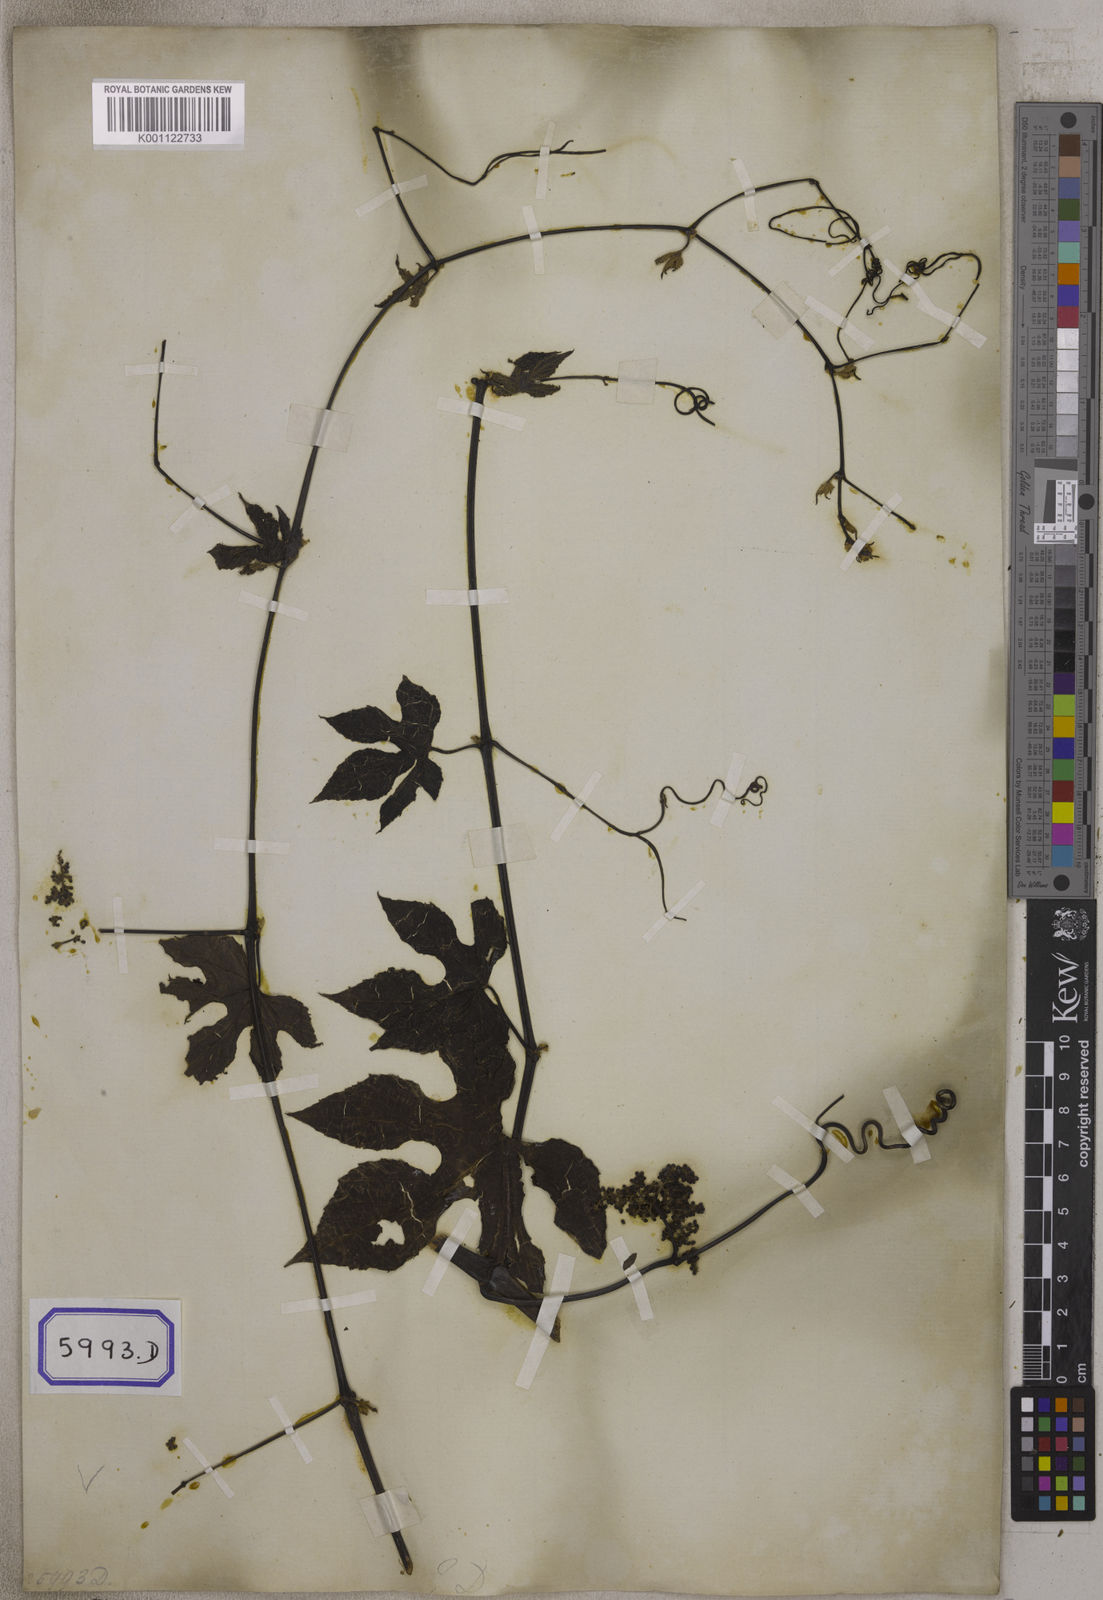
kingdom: Plantae
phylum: Tracheophyta
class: Magnoliopsida
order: Vitales
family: Vitaceae
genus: Ampelocissus
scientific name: Ampelocissus indica
